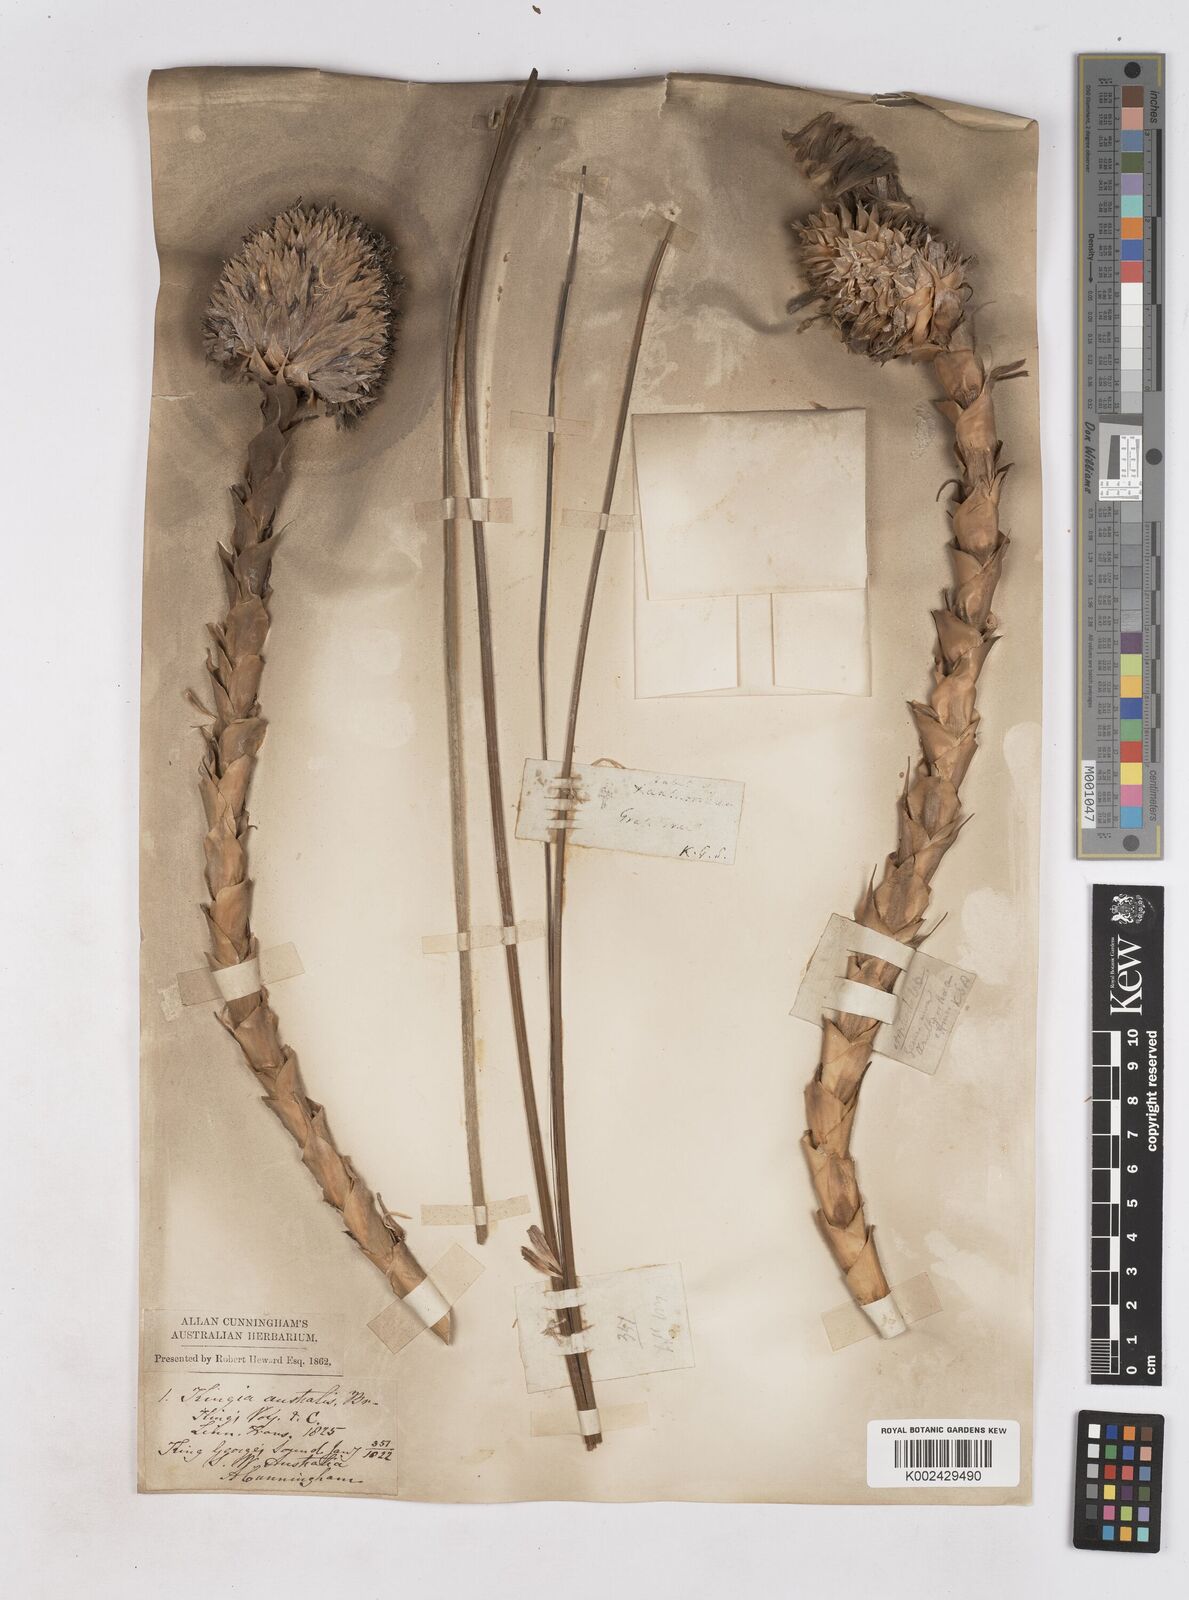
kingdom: Plantae
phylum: Tracheophyta
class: Liliopsida
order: Arecales
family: Dasypogonaceae
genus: Kingia
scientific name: Kingia australis
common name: Black gin
